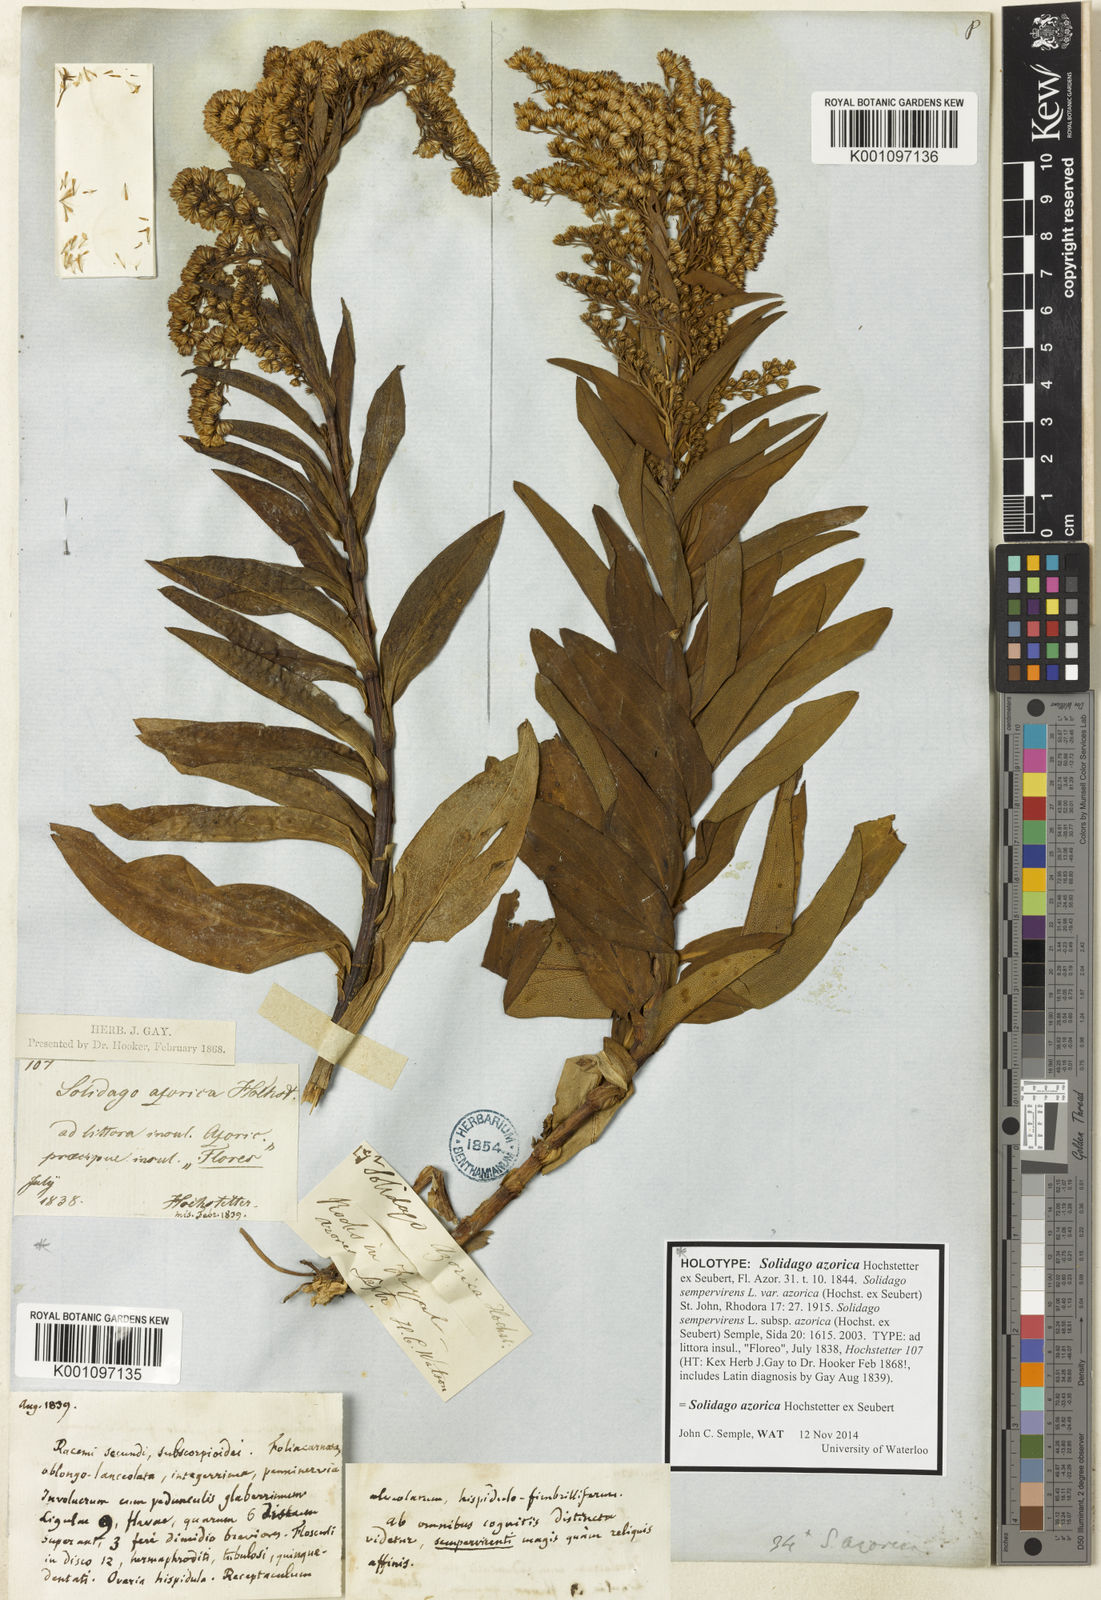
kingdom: Plantae
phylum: Tracheophyta
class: Magnoliopsida
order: Asterales
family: Asteraceae
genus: Solidago
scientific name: Solidago azorica
